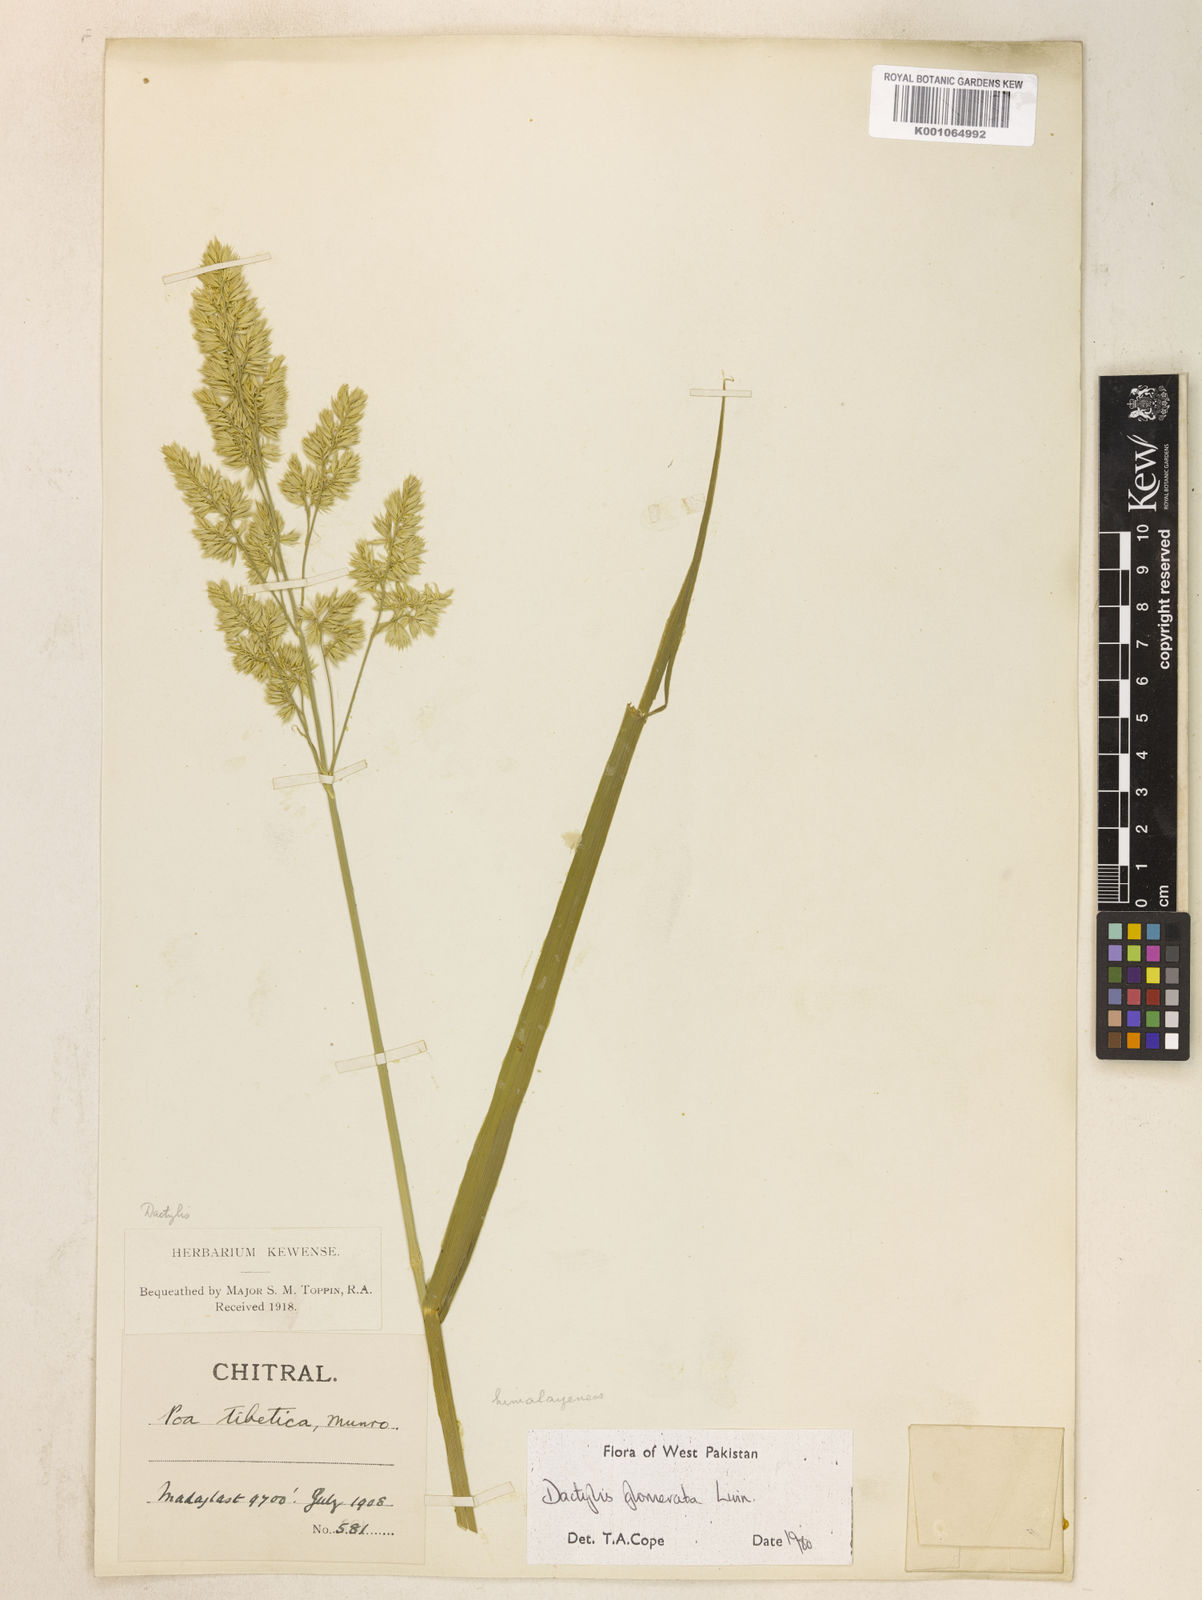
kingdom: Plantae
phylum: Tracheophyta
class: Liliopsida
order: Poales
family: Poaceae
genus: Dactylis
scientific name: Dactylis glomerata
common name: Orchardgrass
